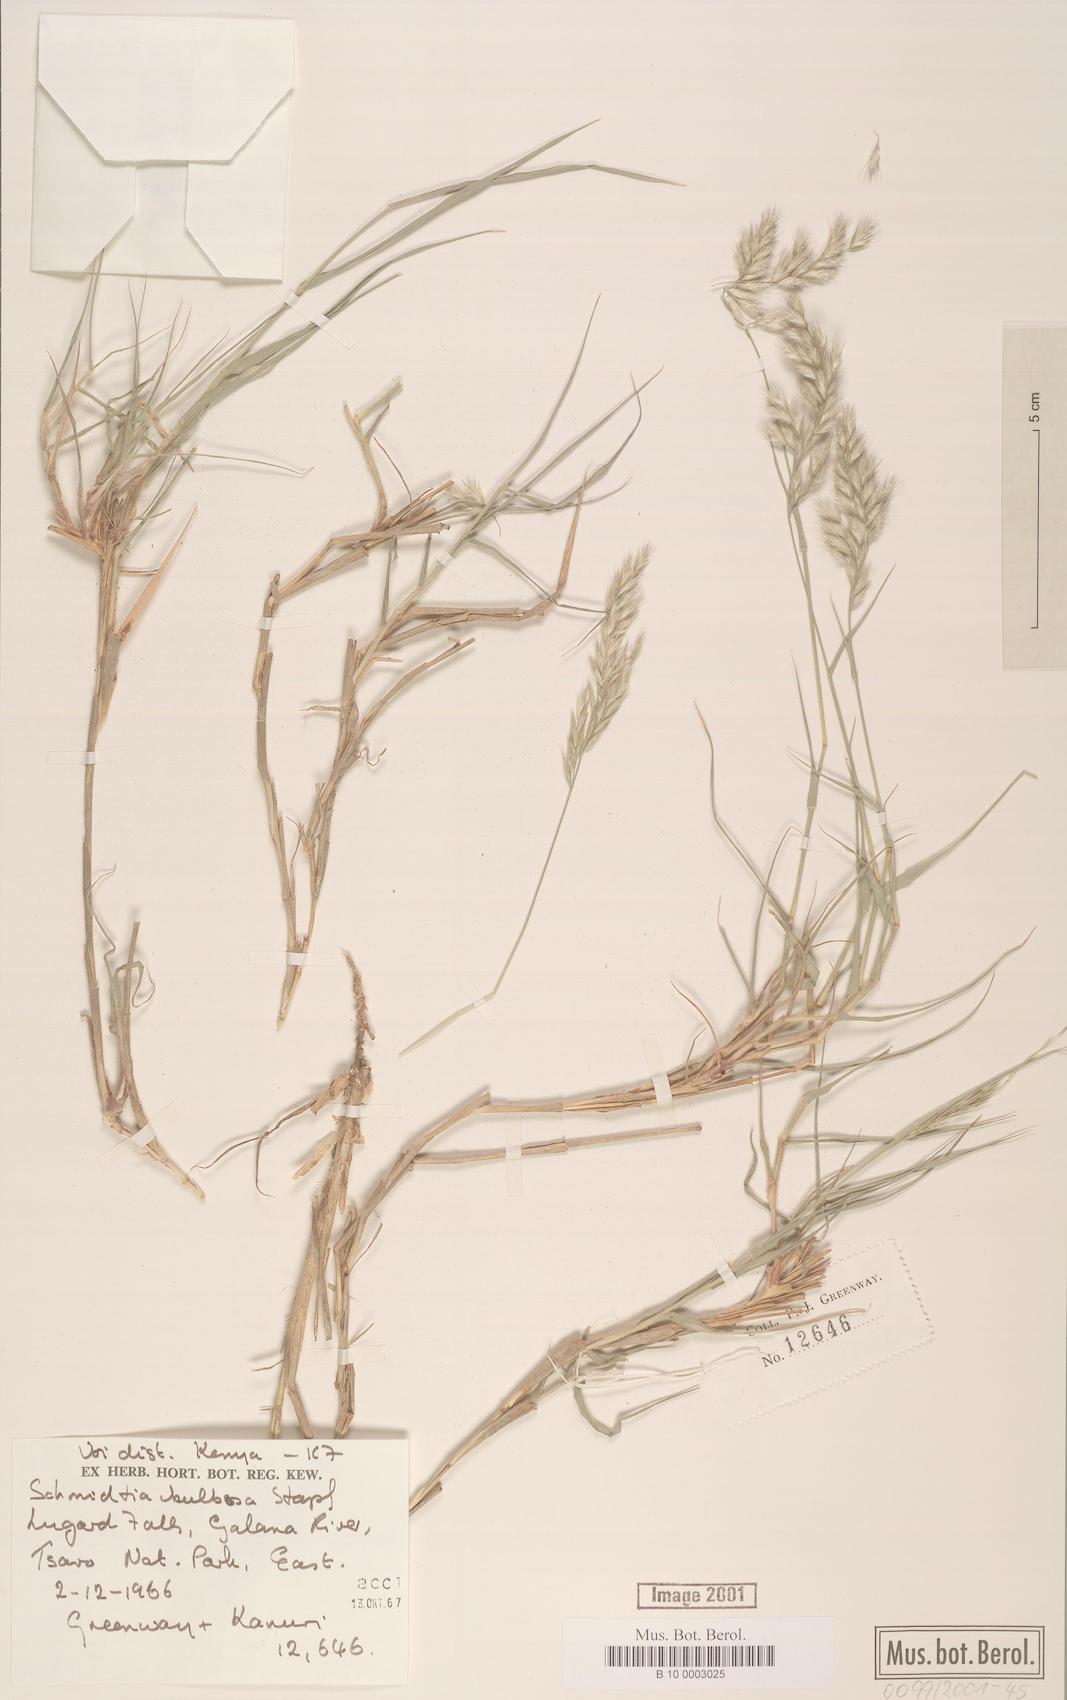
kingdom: Plantae
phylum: Tracheophyta
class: Liliopsida
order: Poales
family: Poaceae
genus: Schmidtia
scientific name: Schmidtia pappophoroides
